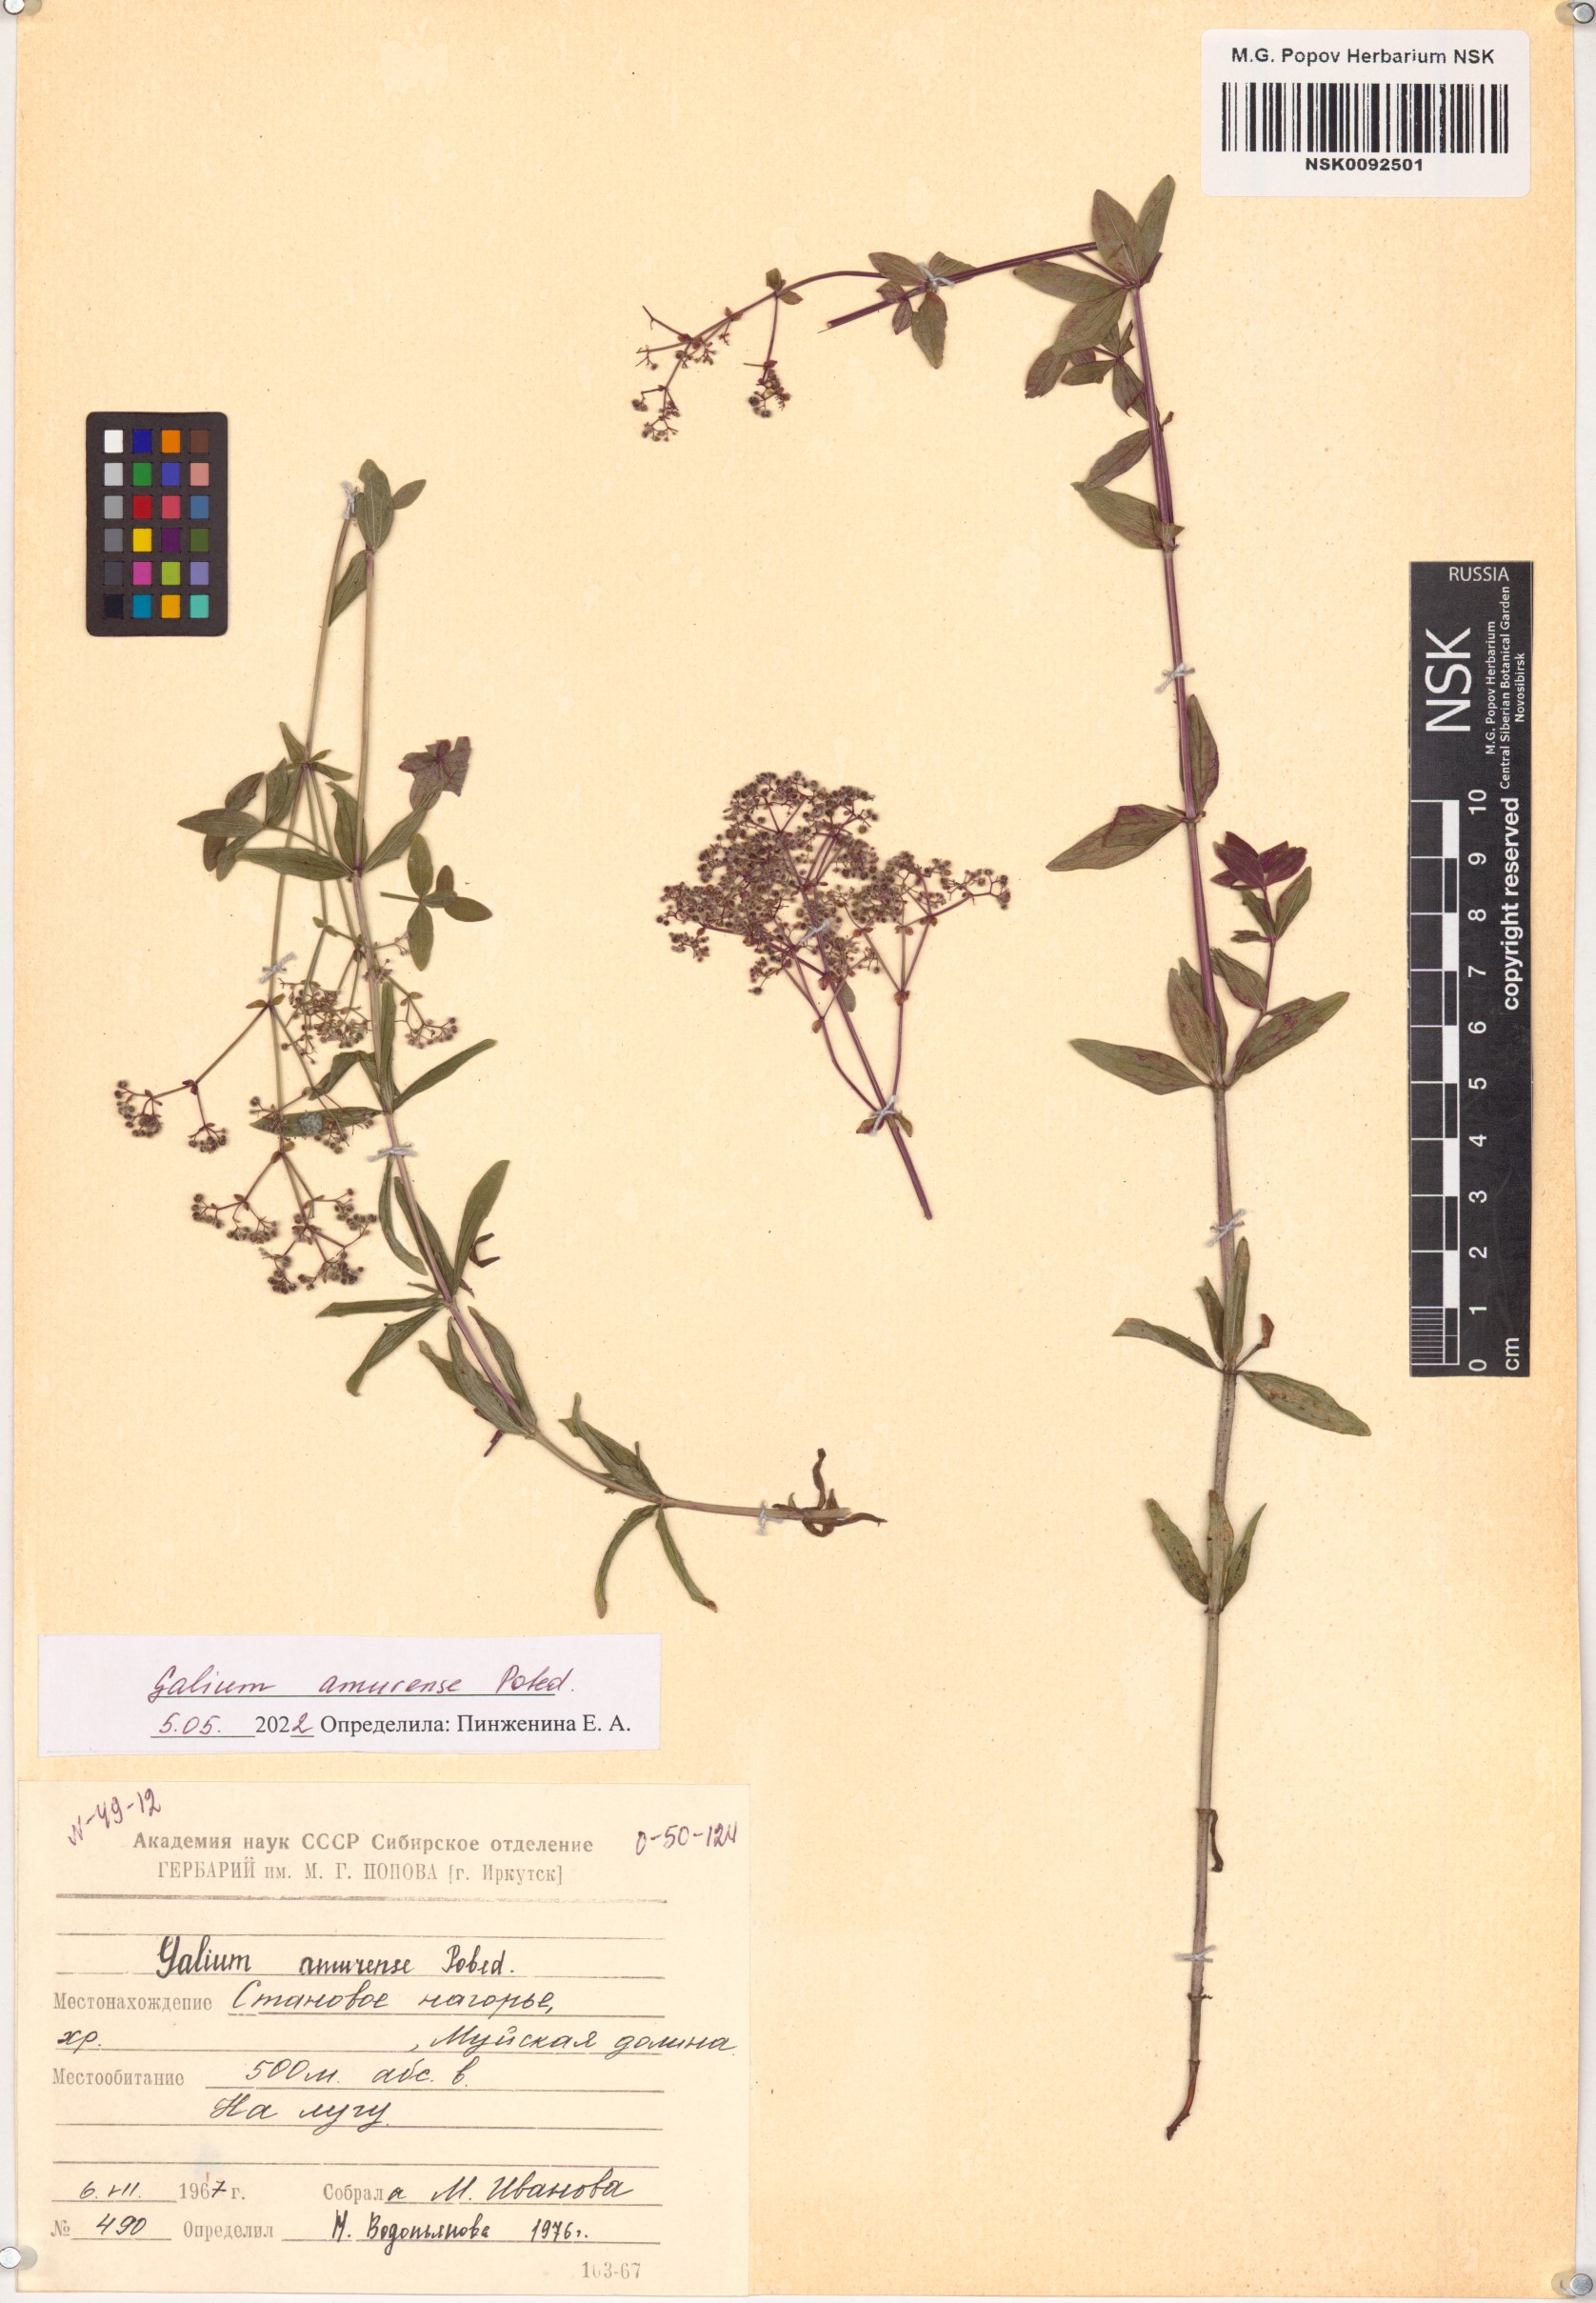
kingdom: Plantae
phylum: Tracheophyta
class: Magnoliopsida
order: Gentianales
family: Rubiaceae
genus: Galium
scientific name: Galium amurense
